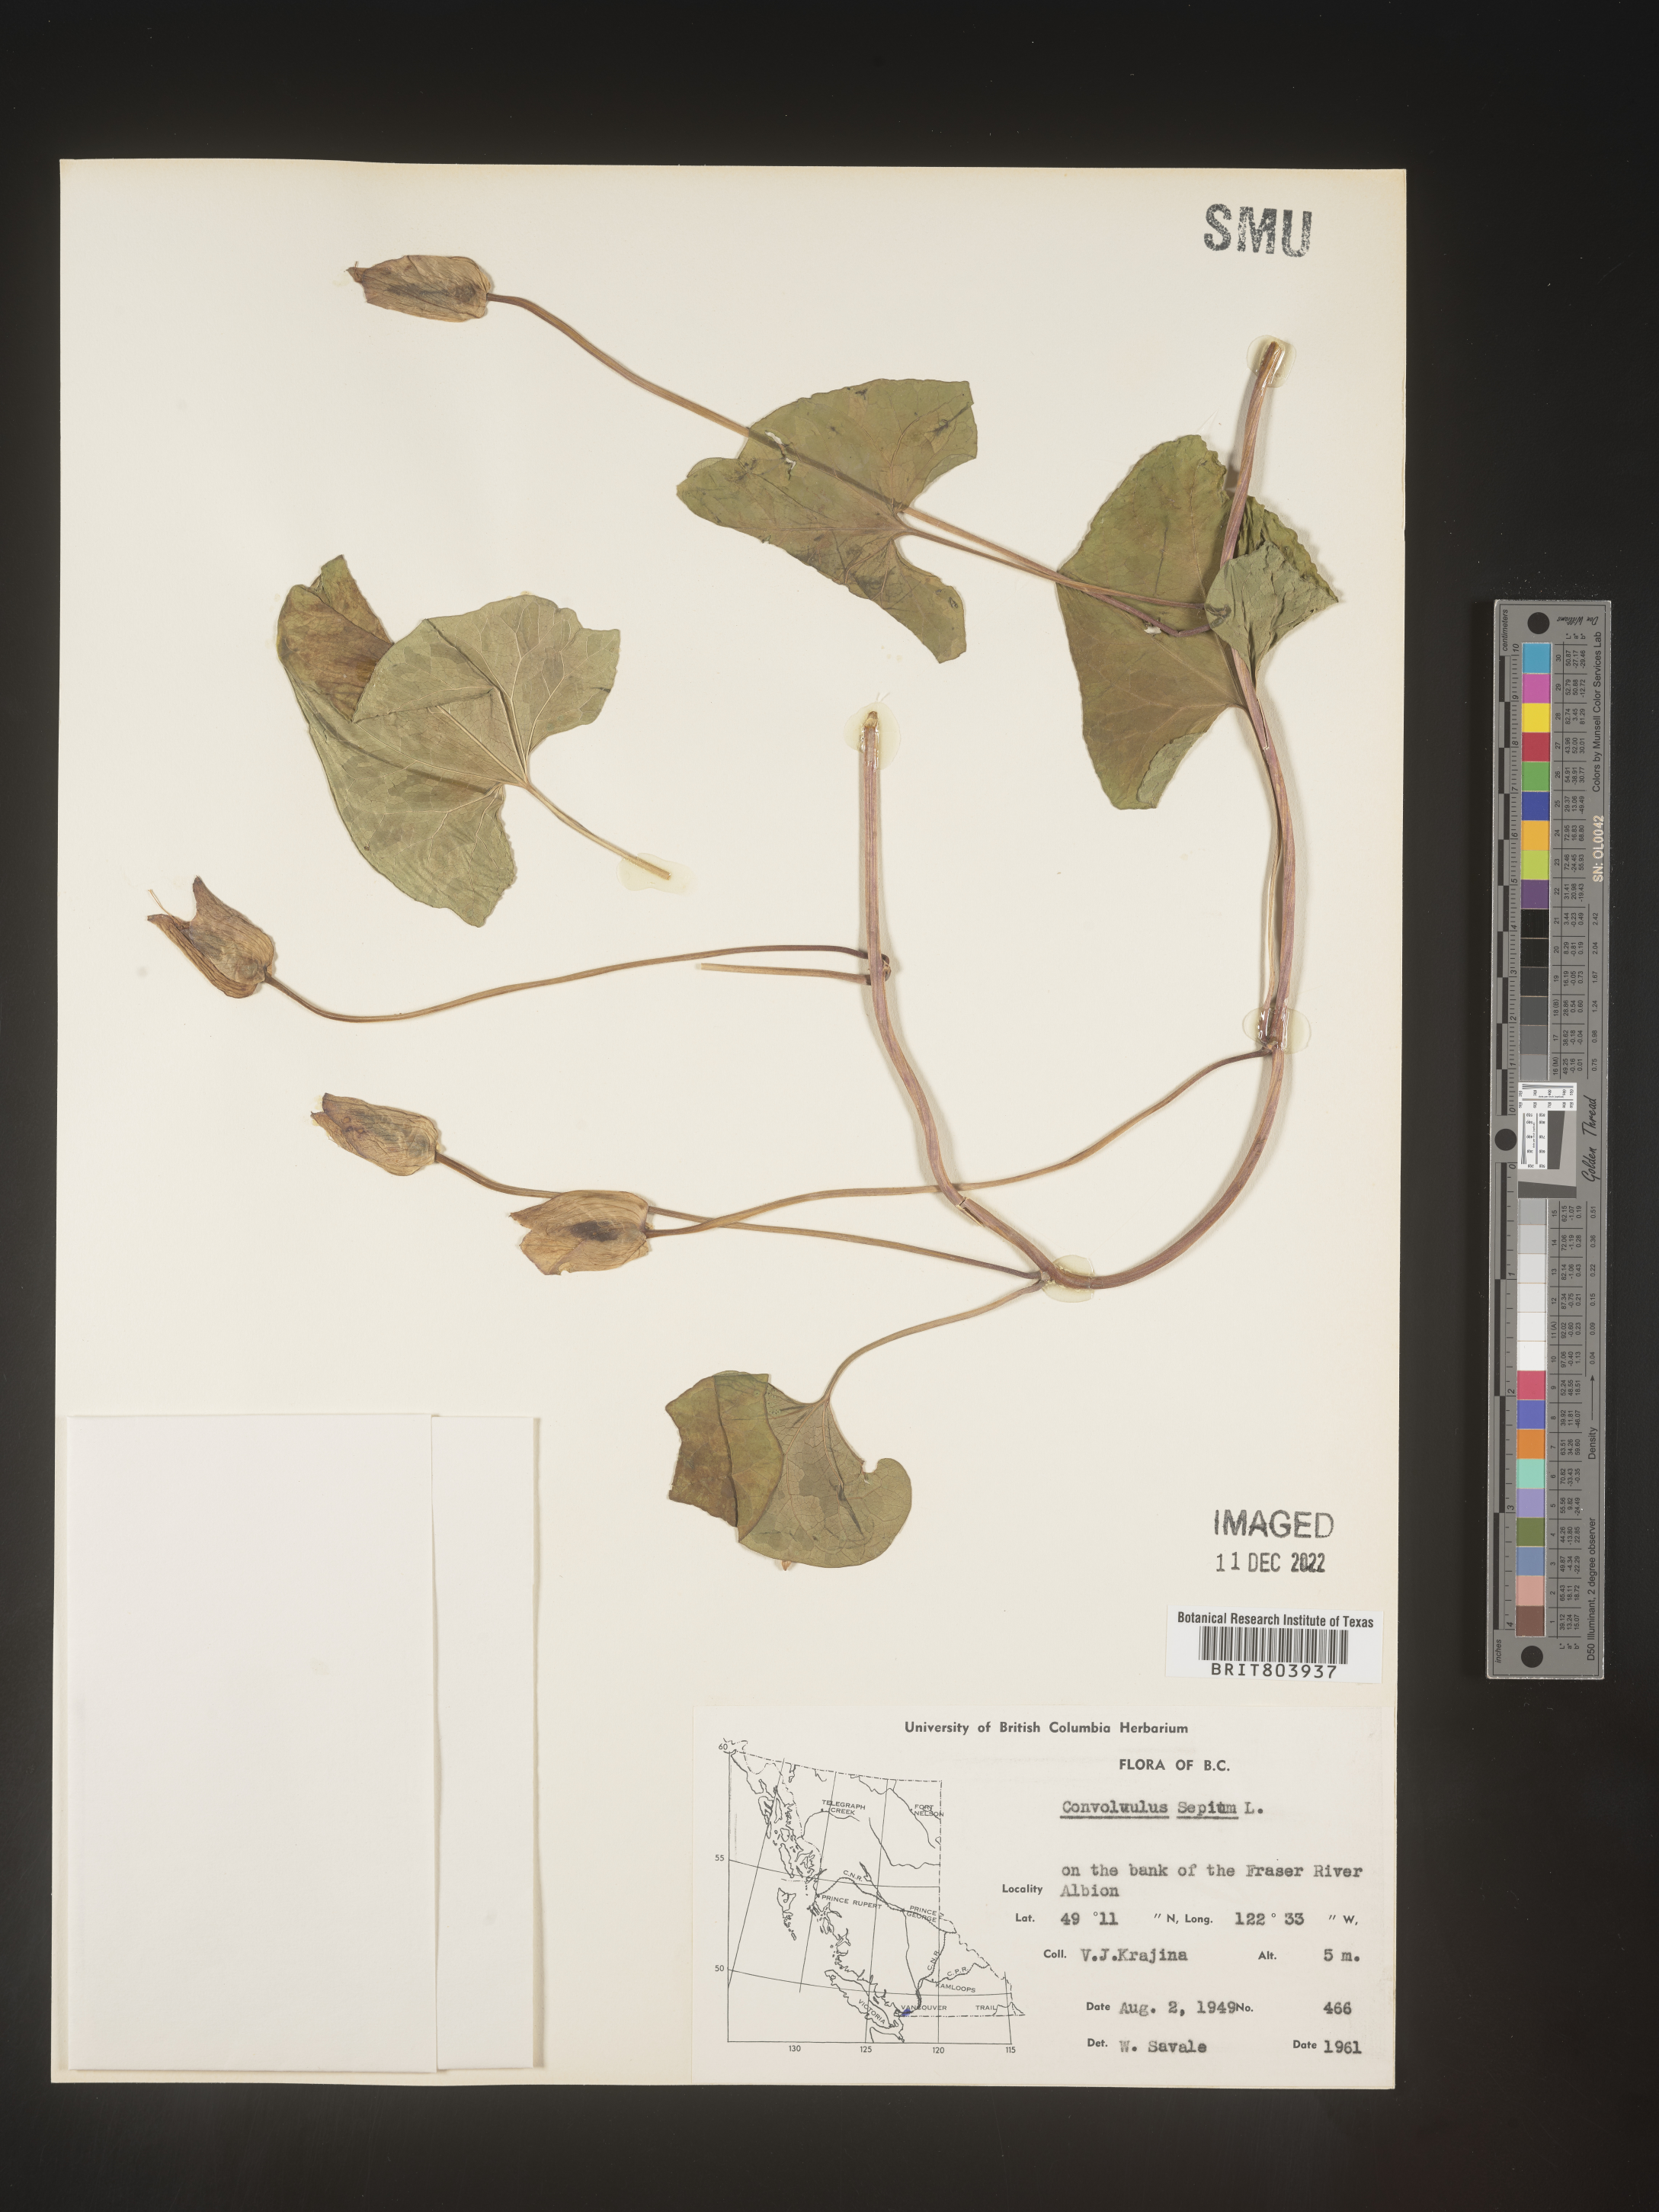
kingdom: Plantae
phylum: Tracheophyta
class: Magnoliopsida
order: Solanales
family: Convolvulaceae
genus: Calystegia
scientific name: Calystegia sepium
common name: Hedge bindweed
